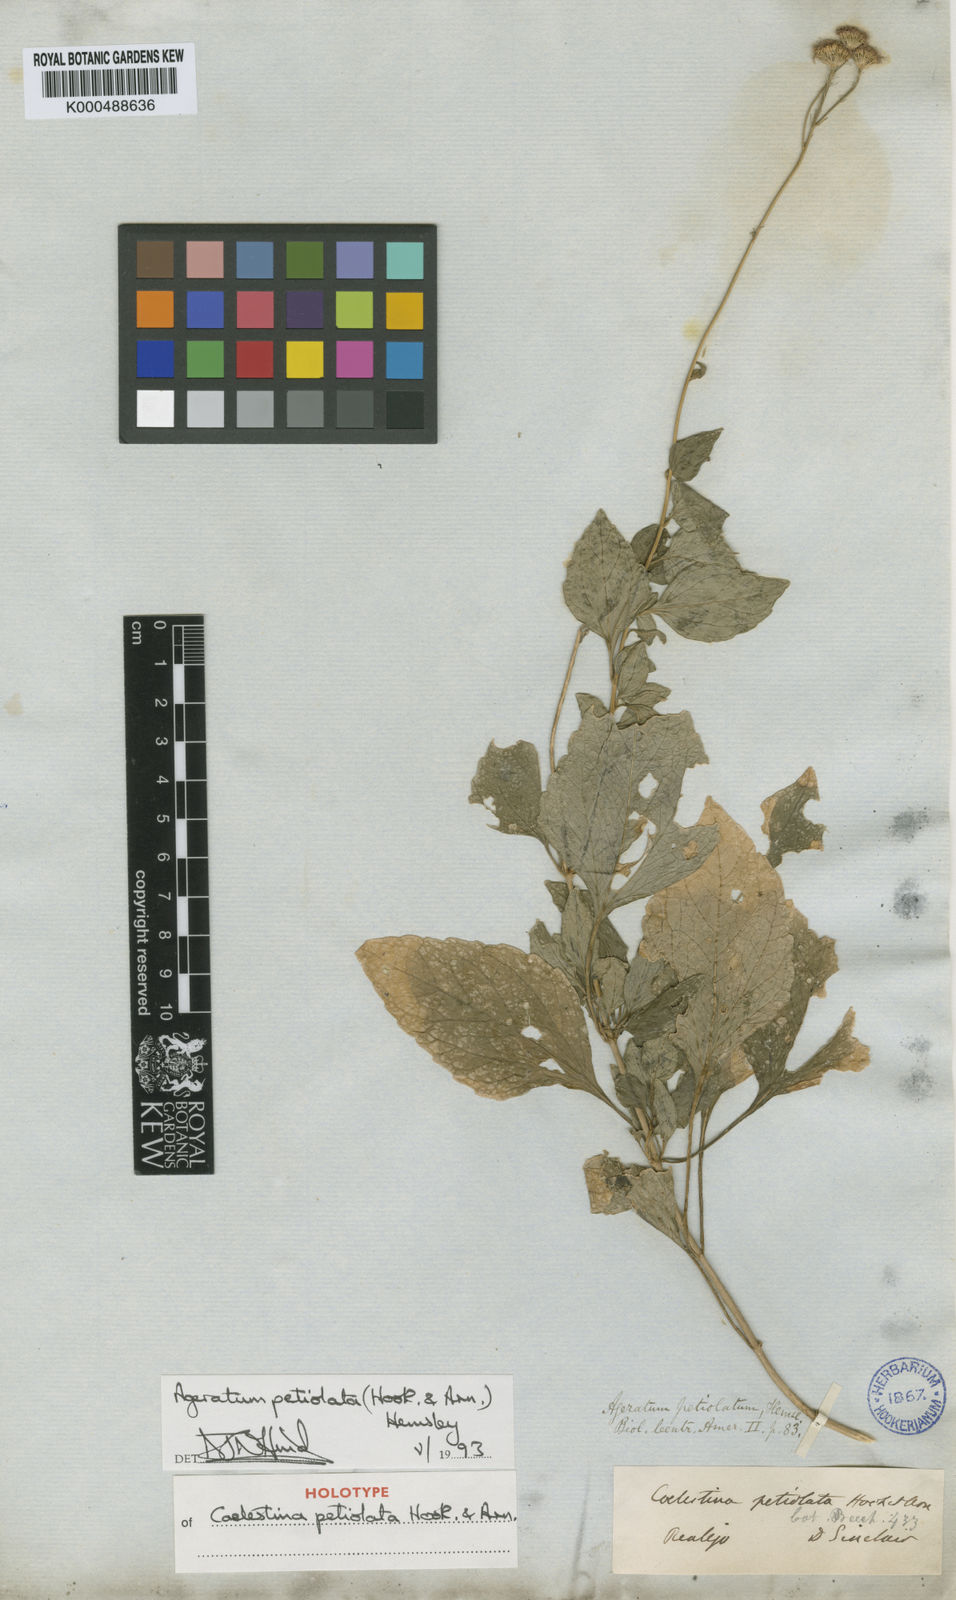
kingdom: Plantae
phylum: Tracheophyta
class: Magnoliopsida
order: Asterales
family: Asteraceae
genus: Ageratum
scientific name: Ageratum petiolatum
